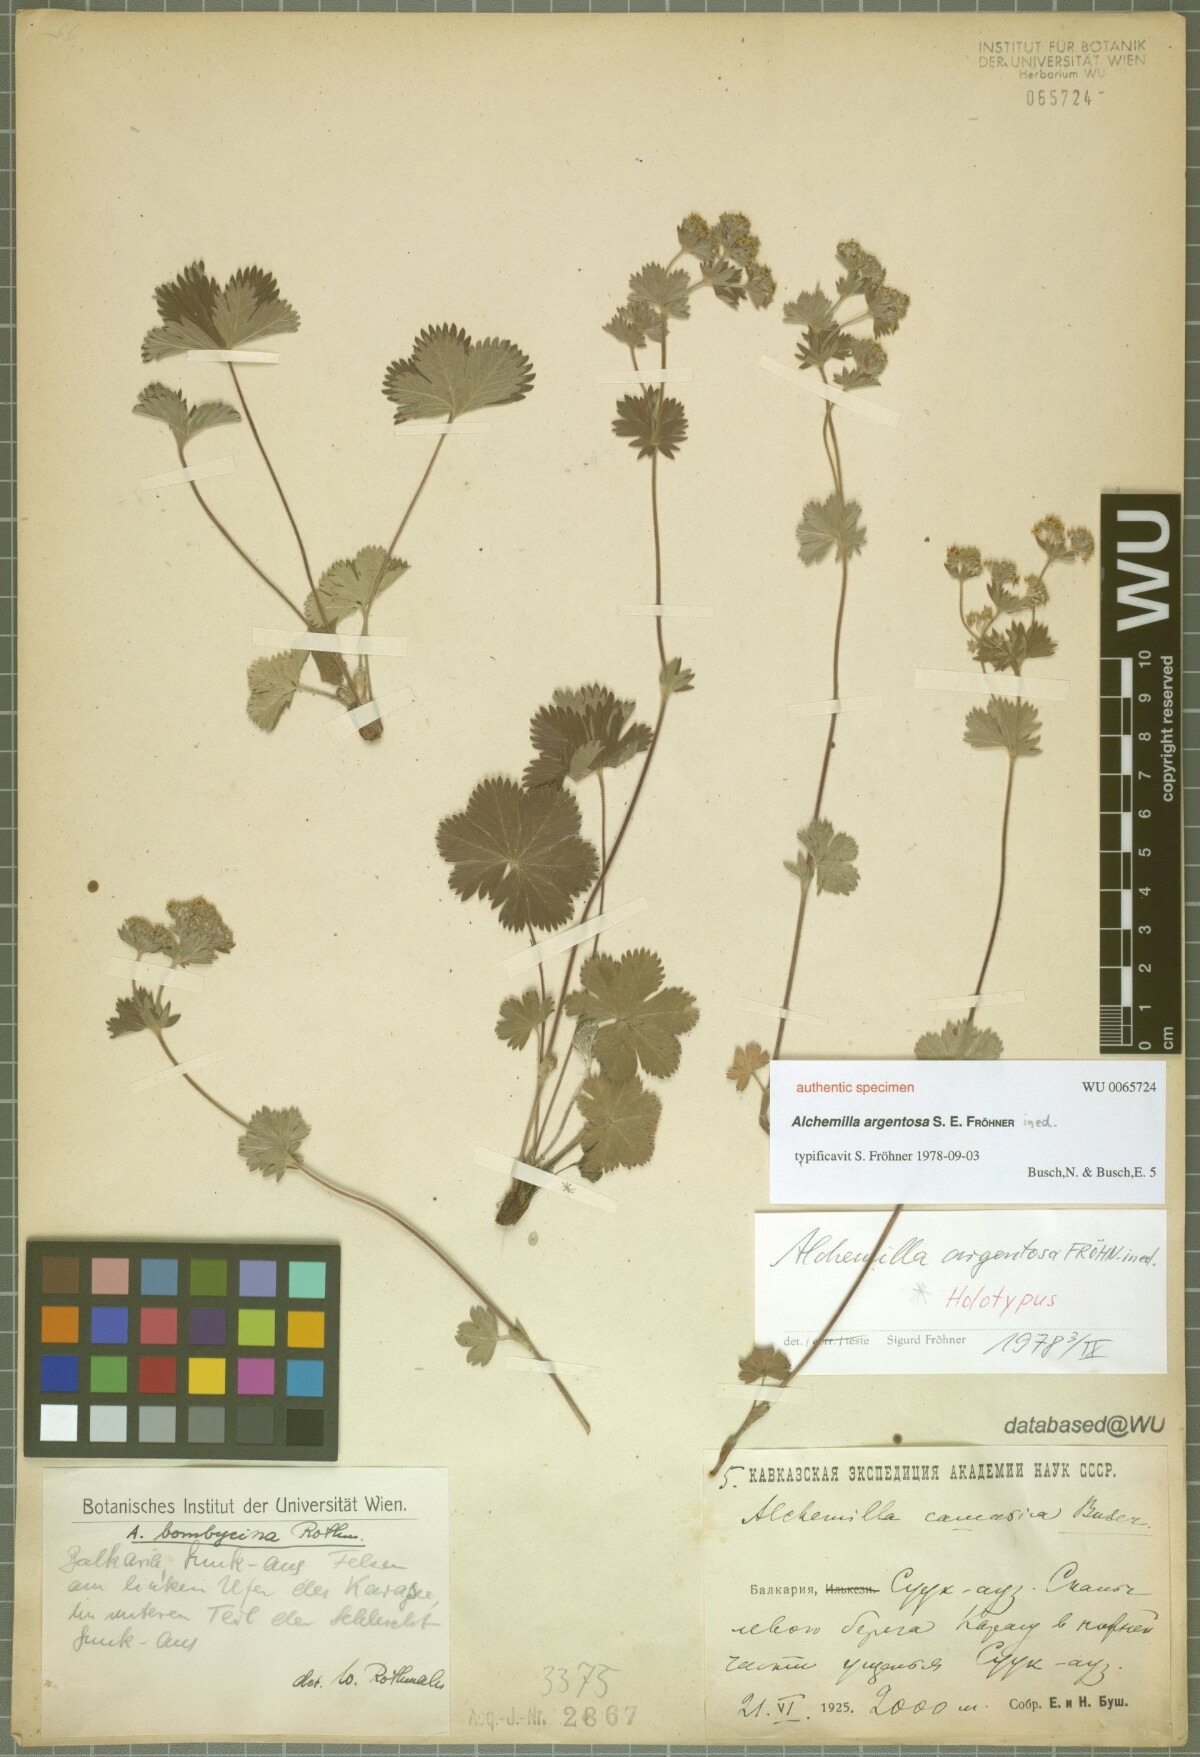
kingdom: Plantae
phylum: Tracheophyta
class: Magnoliopsida
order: Rosales
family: Rosaceae
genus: Alchemilla
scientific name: Alchemilla
